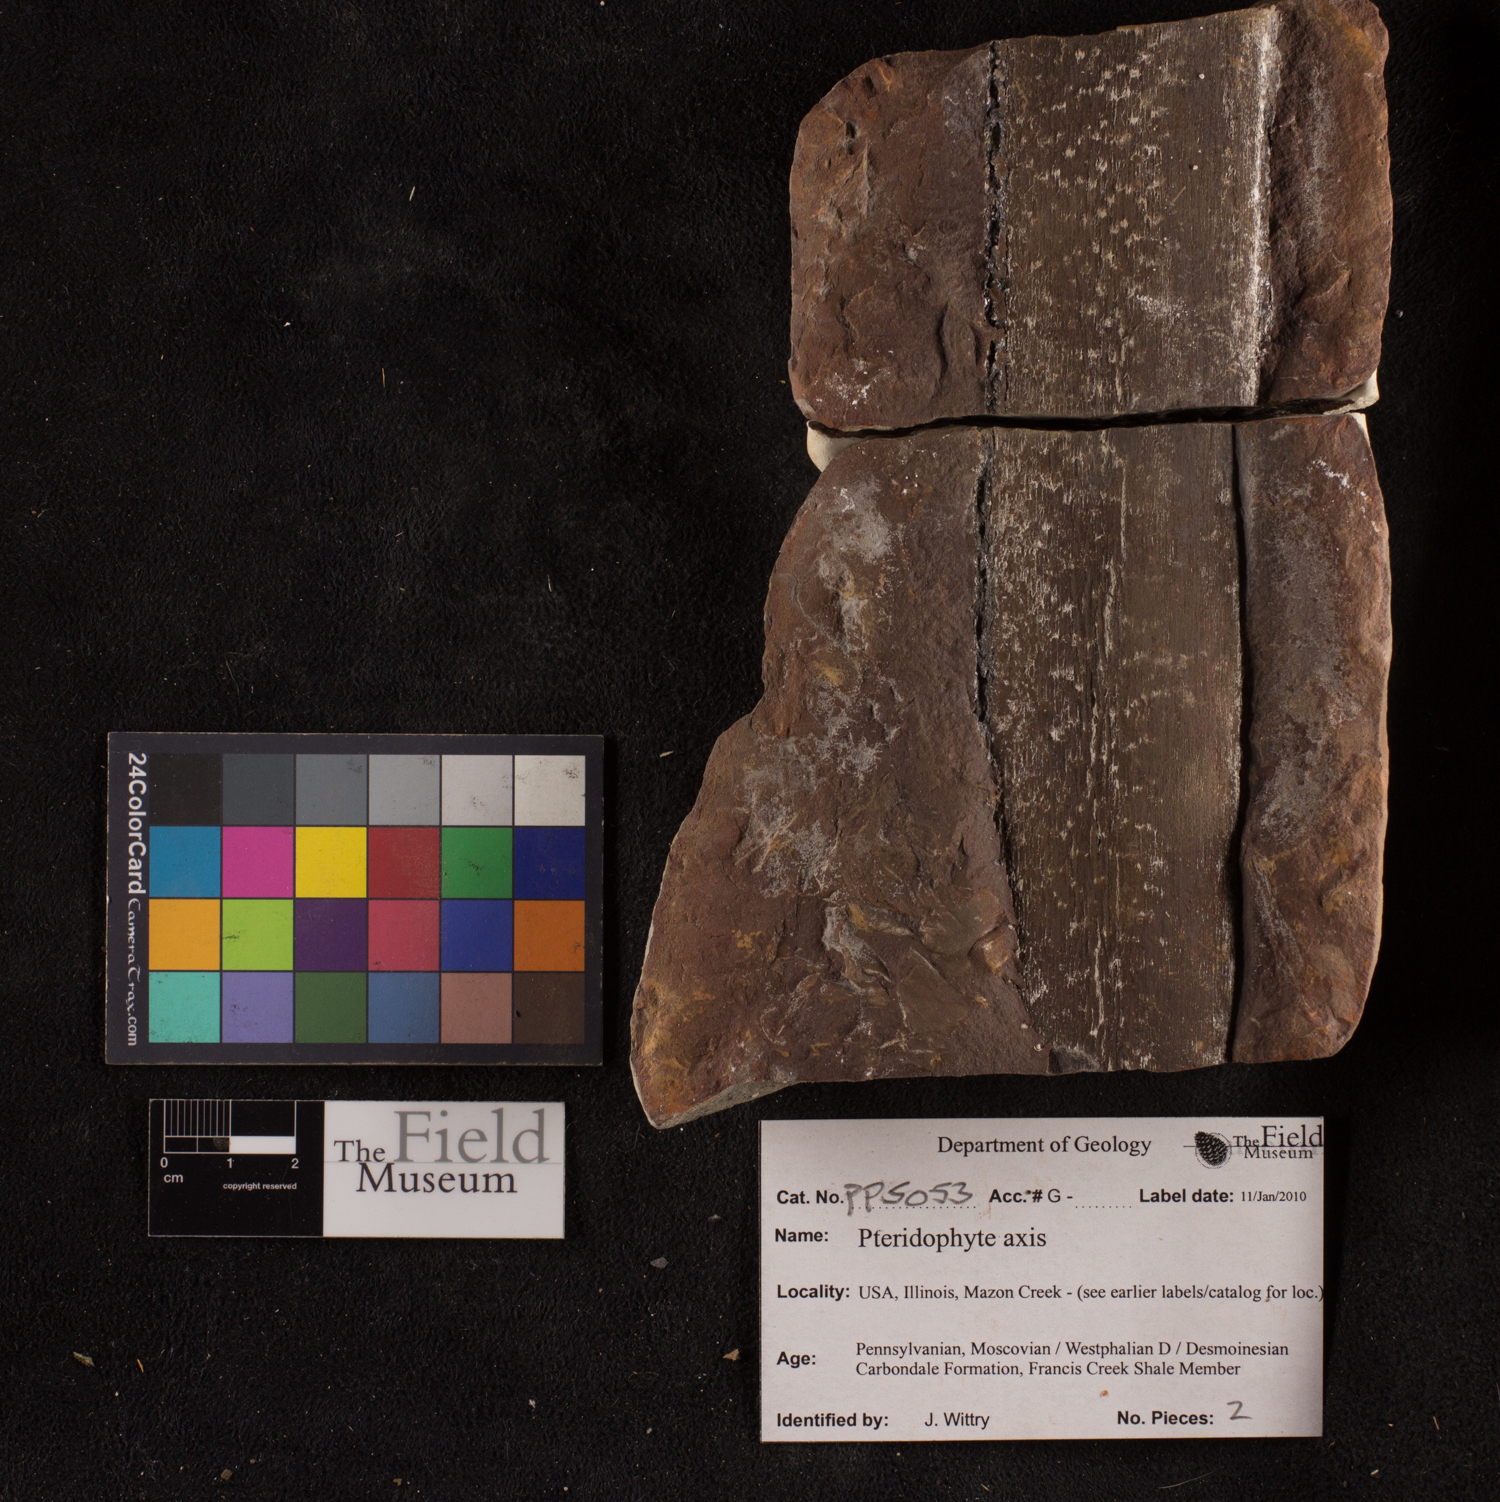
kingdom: Plantae
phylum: Tracheophyta
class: Magnoliopsida
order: Malpighiales
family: Malpighiaceae
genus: Heteropterys
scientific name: Heteropterys Banisteria repandifolia
